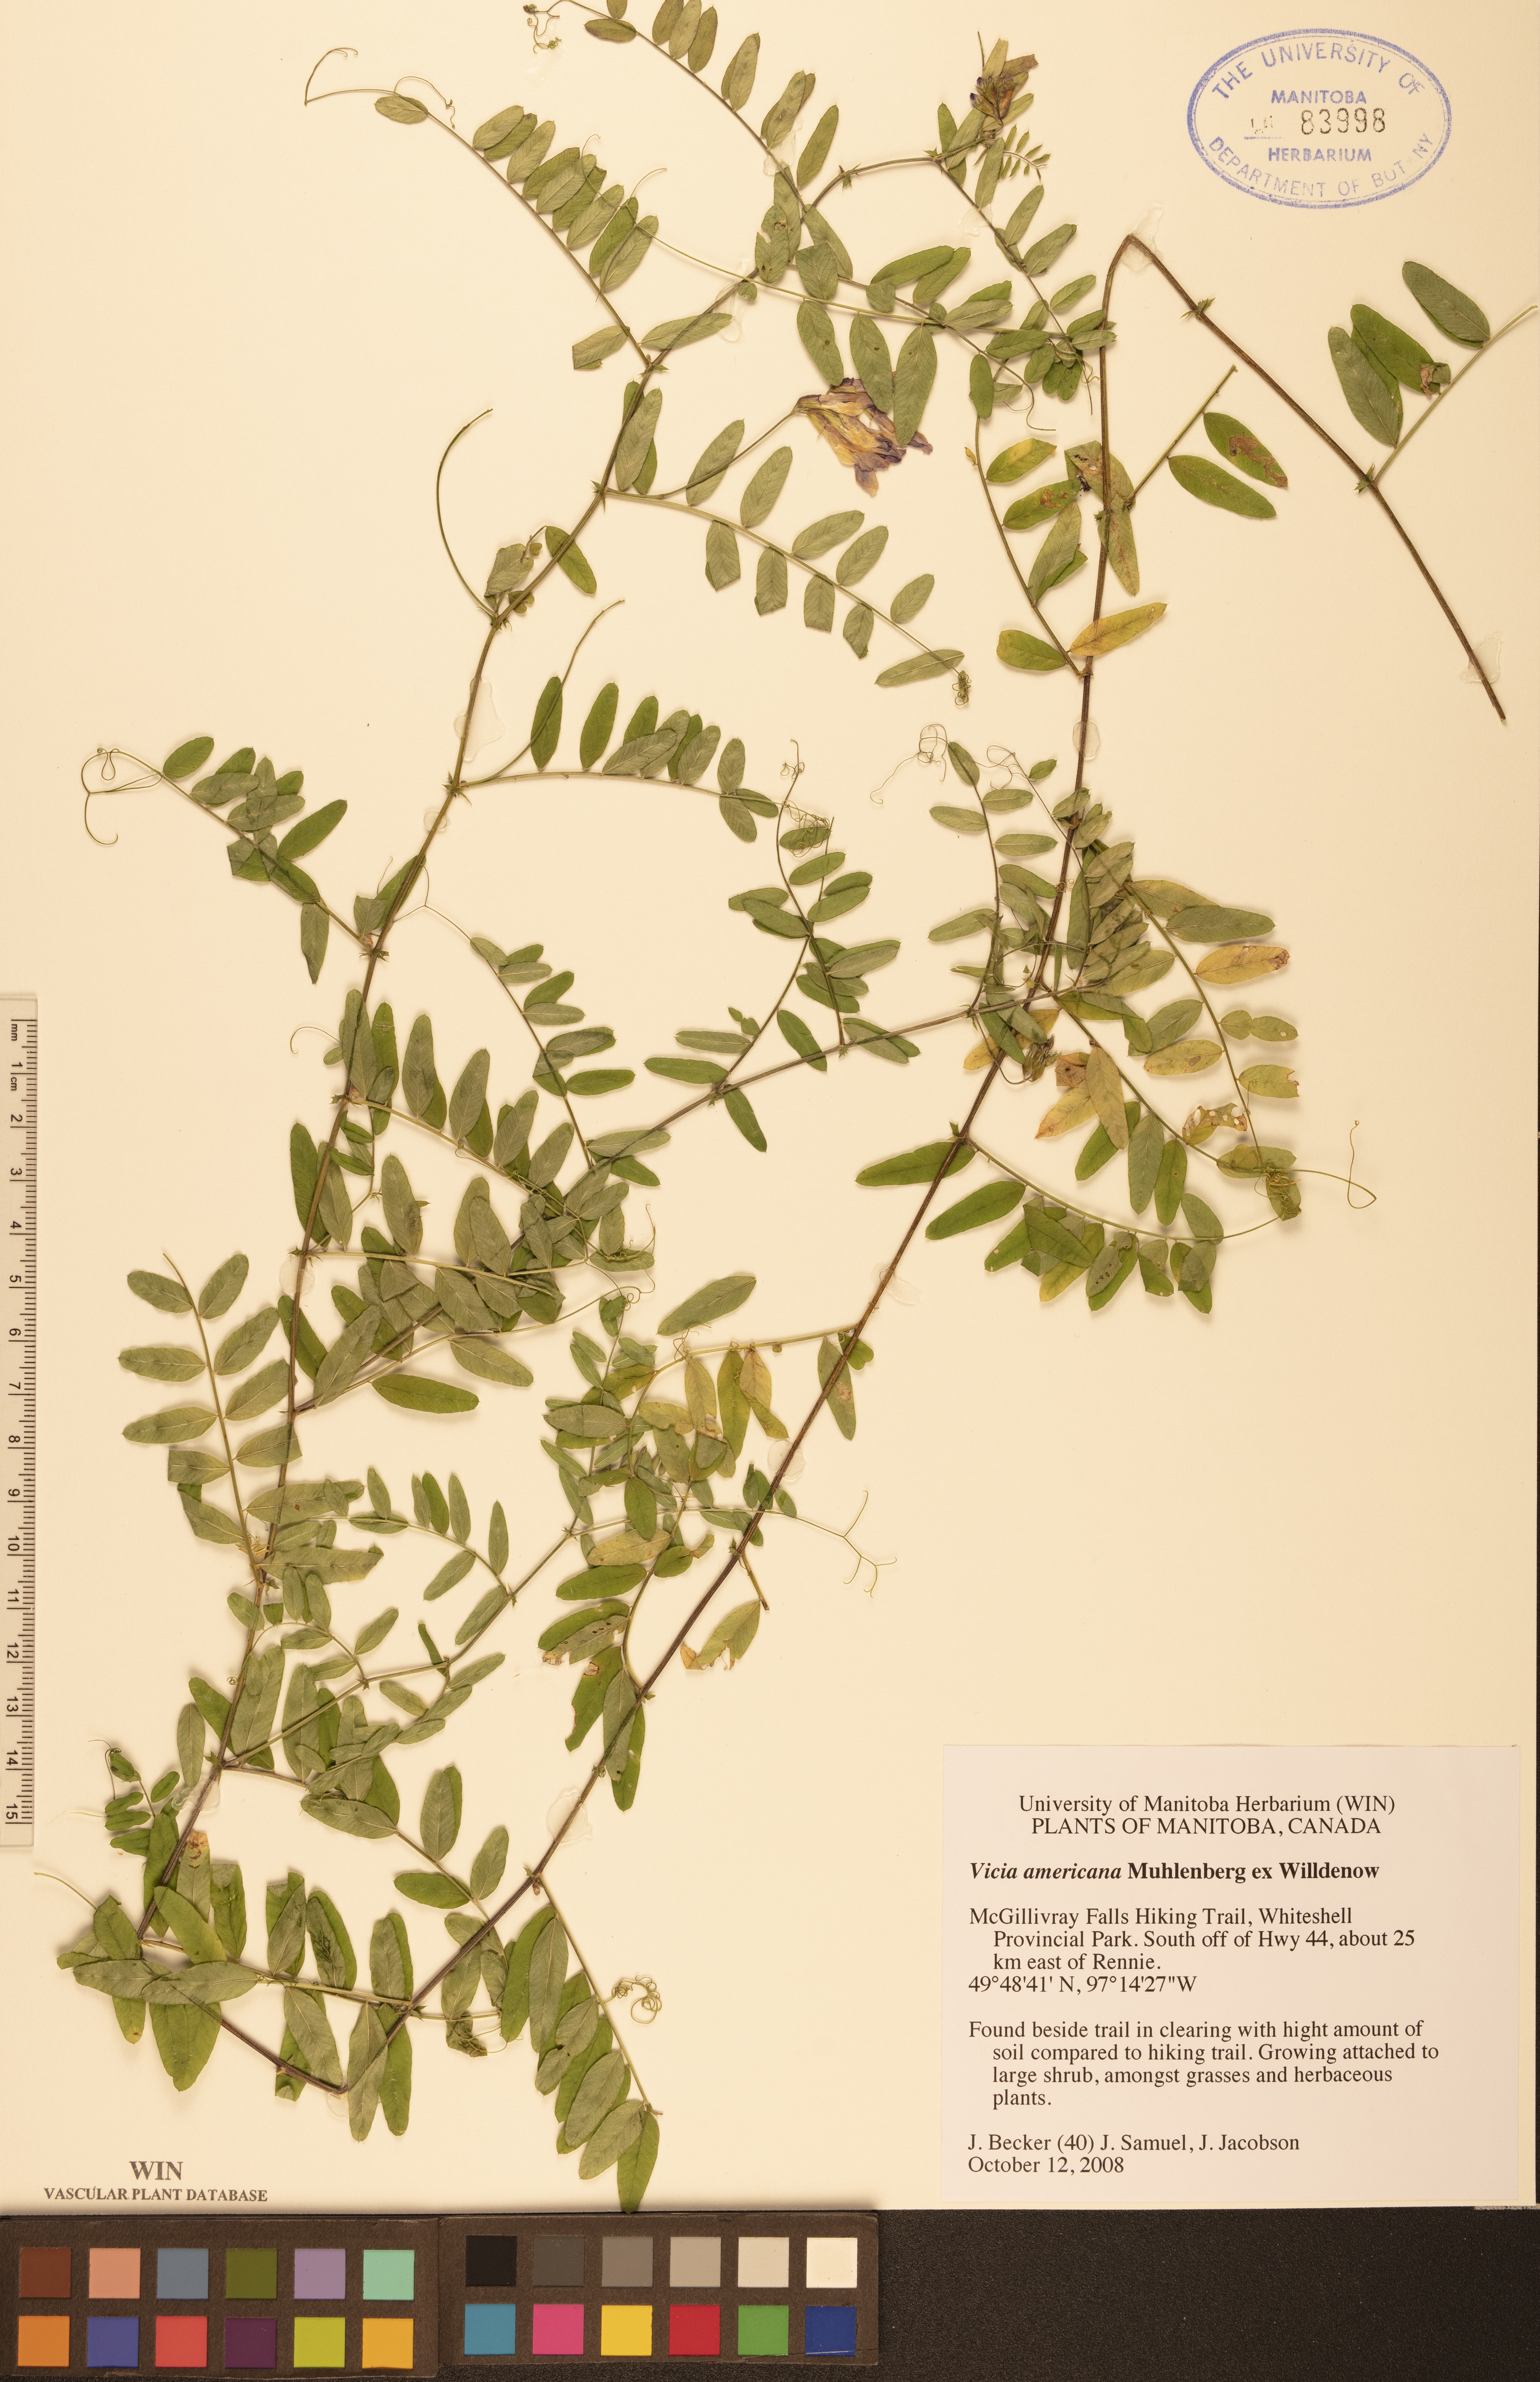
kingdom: Plantae
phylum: Tracheophyta
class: Magnoliopsida
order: Fabales
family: Fabaceae
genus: Vicia
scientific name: Vicia americana
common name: American vetch
